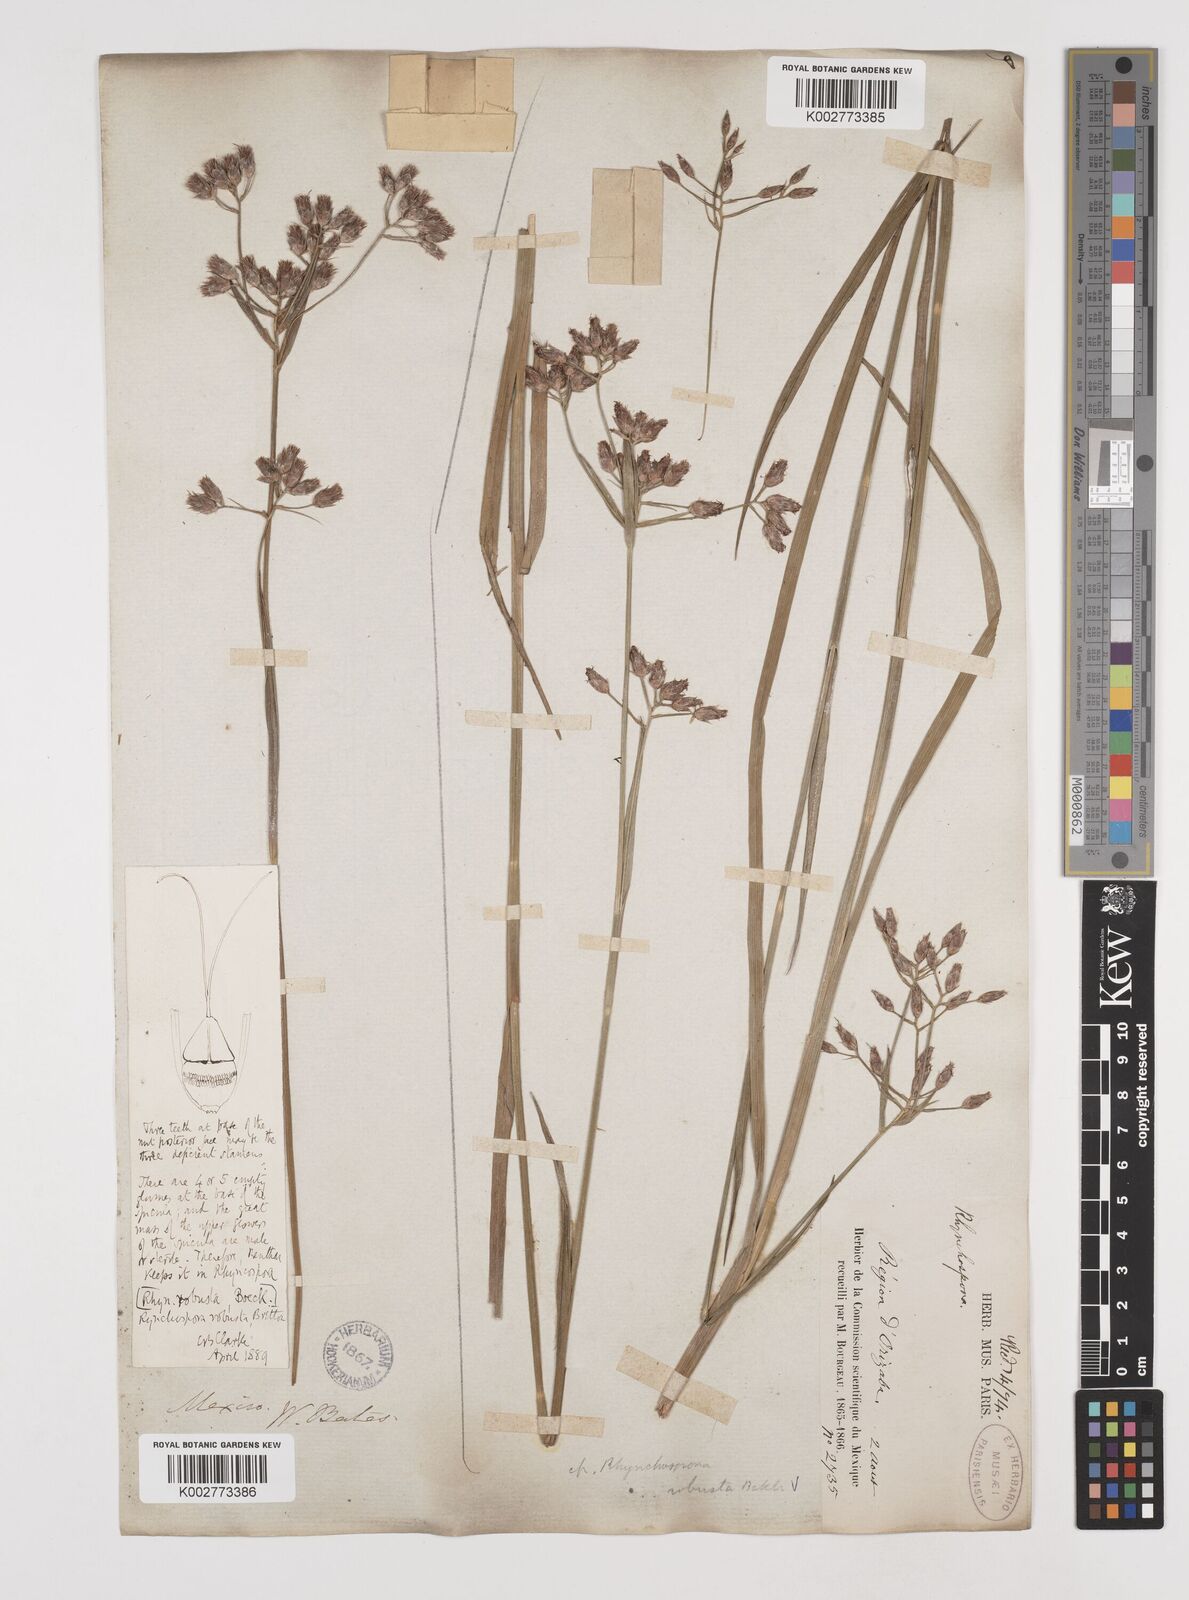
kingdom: Plantae
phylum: Tracheophyta
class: Liliopsida
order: Poales
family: Cyperaceae
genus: Rhynchospora
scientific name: Rhynchospora robusta
